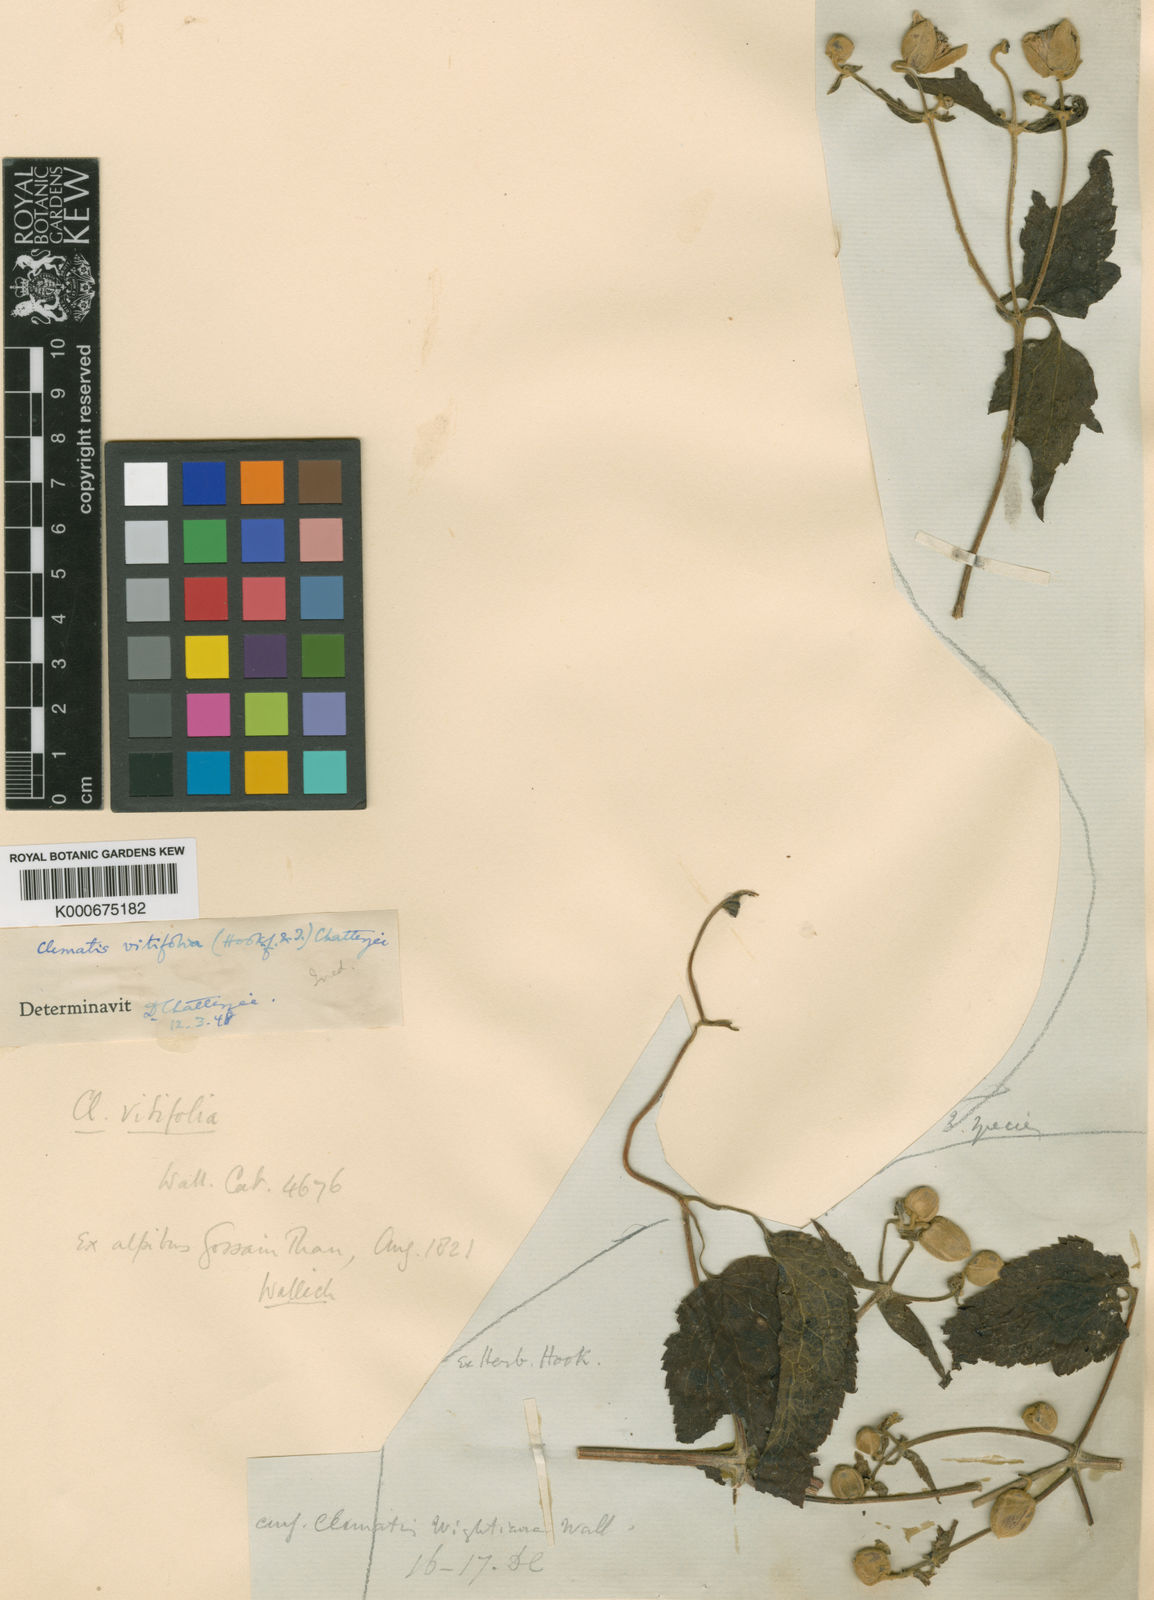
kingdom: Plantae
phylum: Tracheophyta
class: Magnoliopsida
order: Ranunculales
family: Ranunculaceae
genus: Clematis
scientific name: Clematis tortuosa
